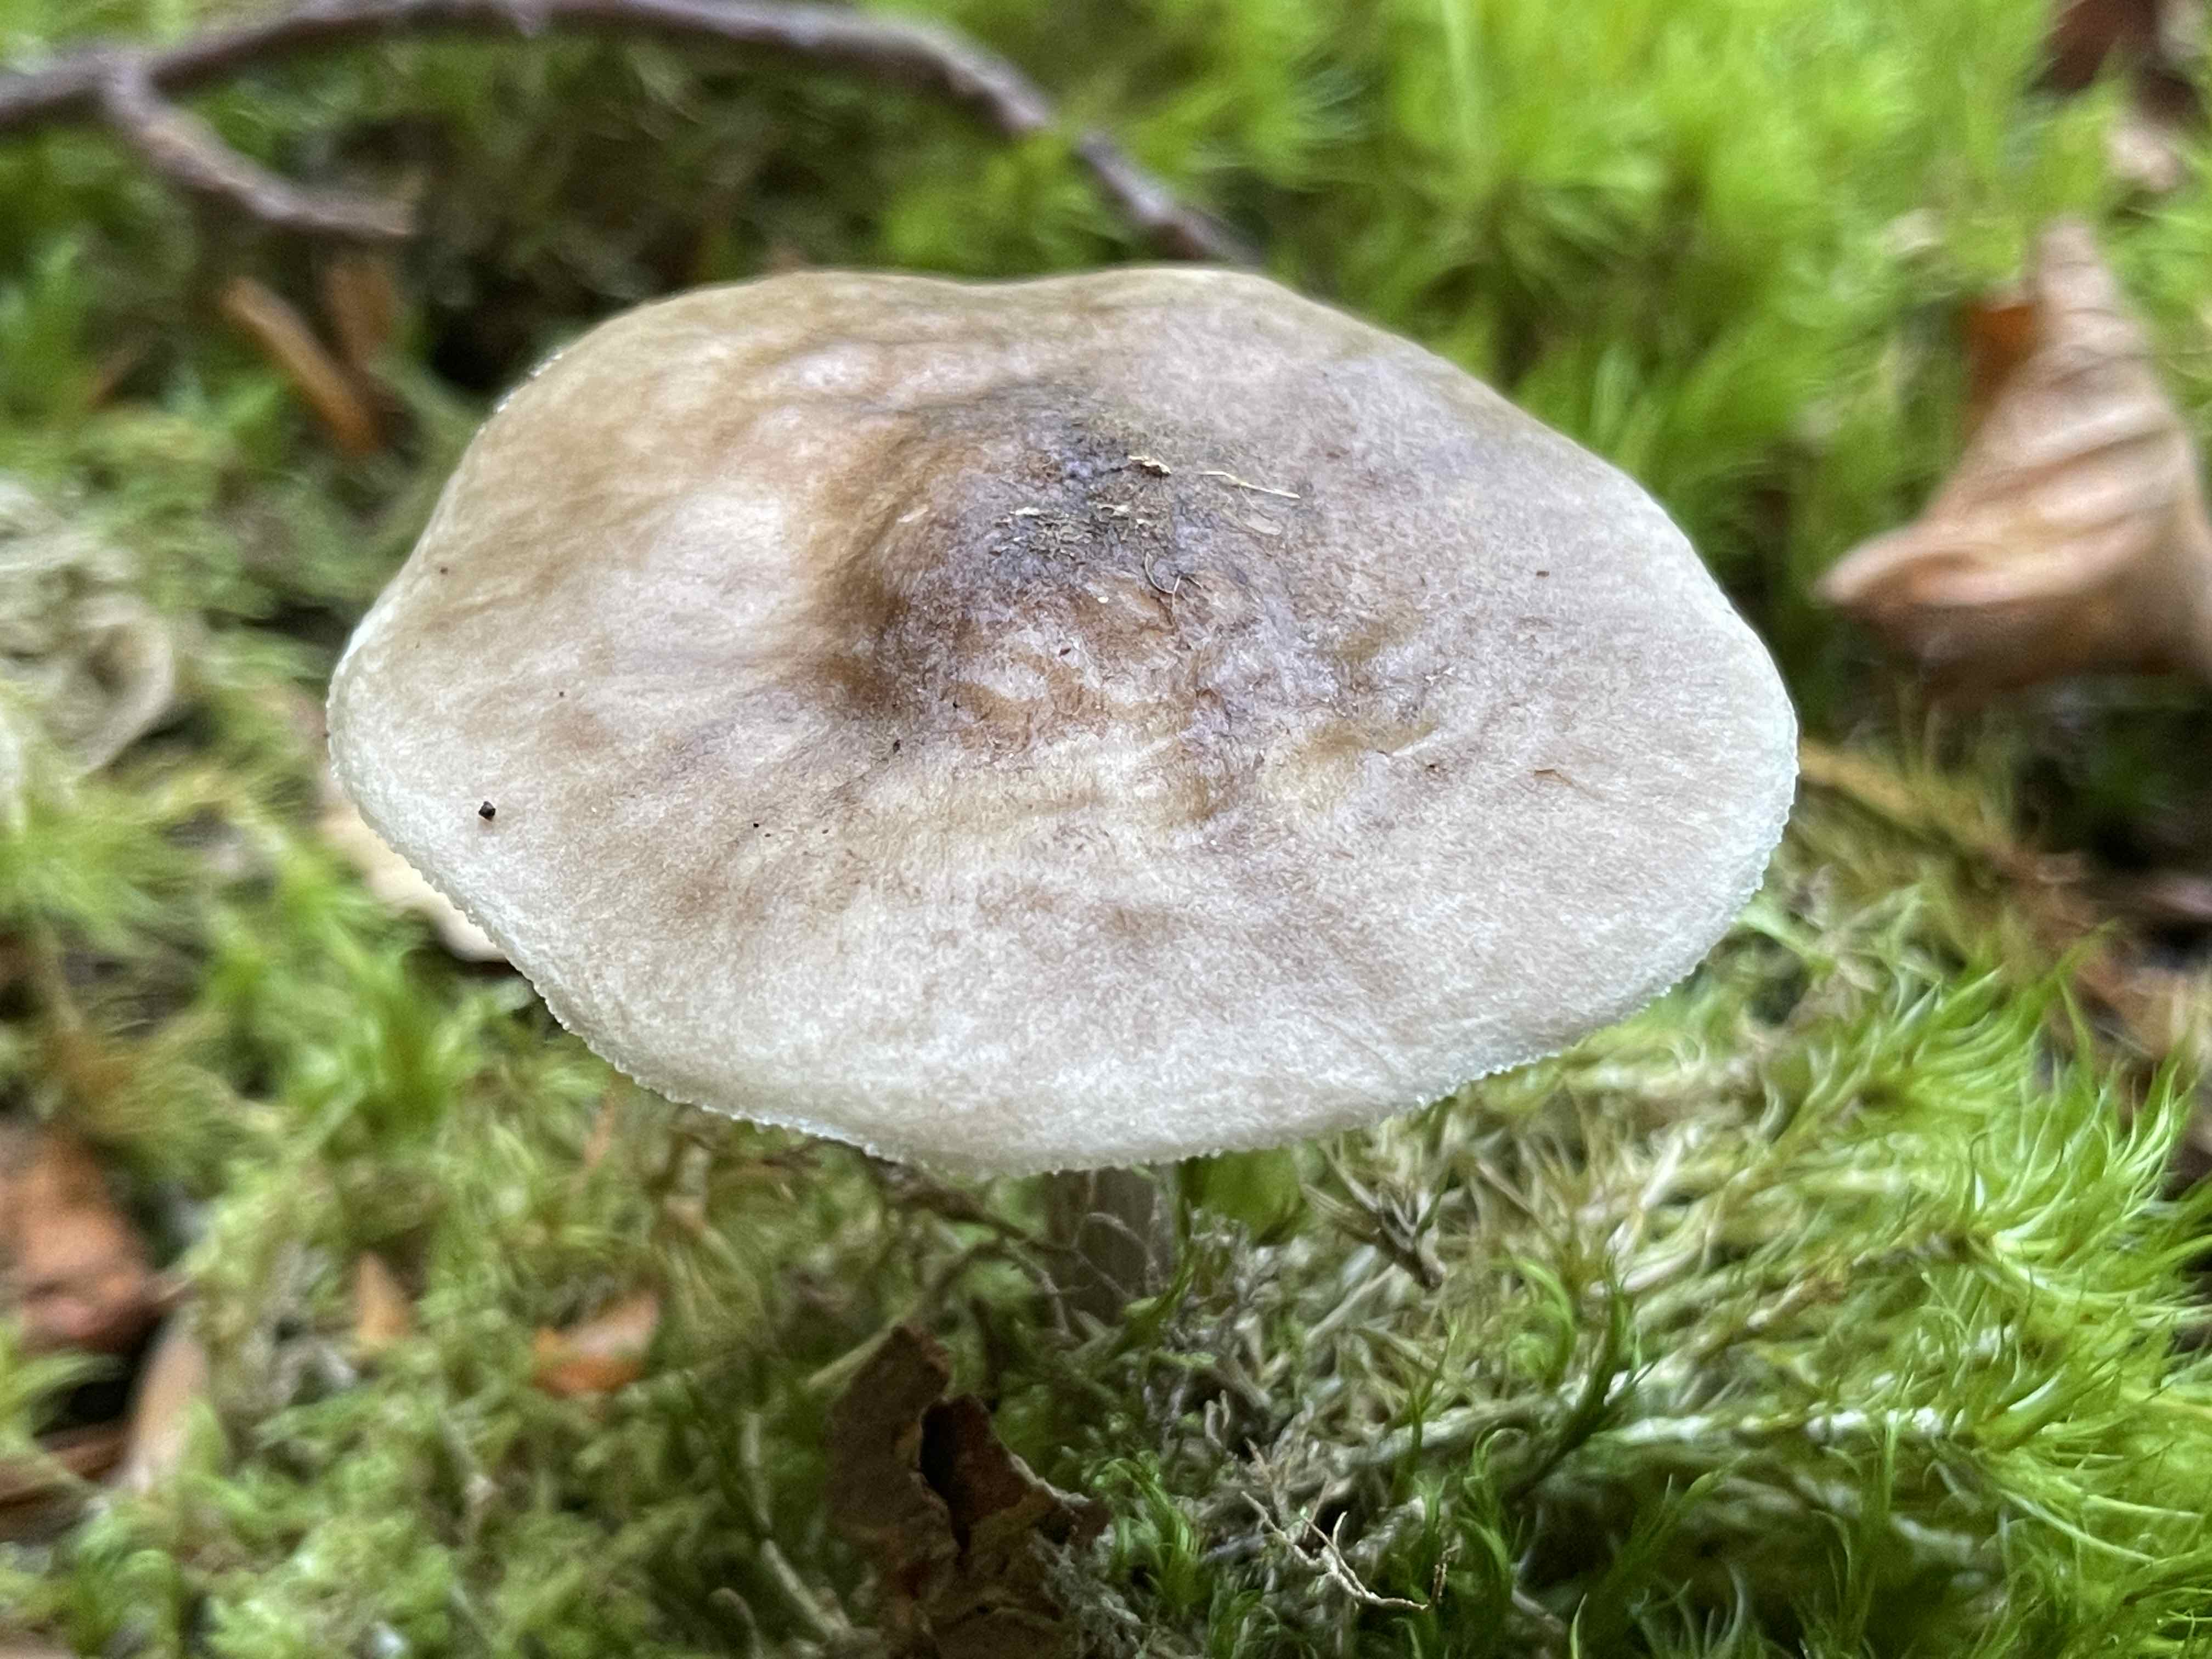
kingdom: Fungi
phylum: Basidiomycota
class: Agaricomycetes
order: Agaricales
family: Pluteaceae
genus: Pluteus
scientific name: Pluteus salicinus
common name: stiv skærmhat
